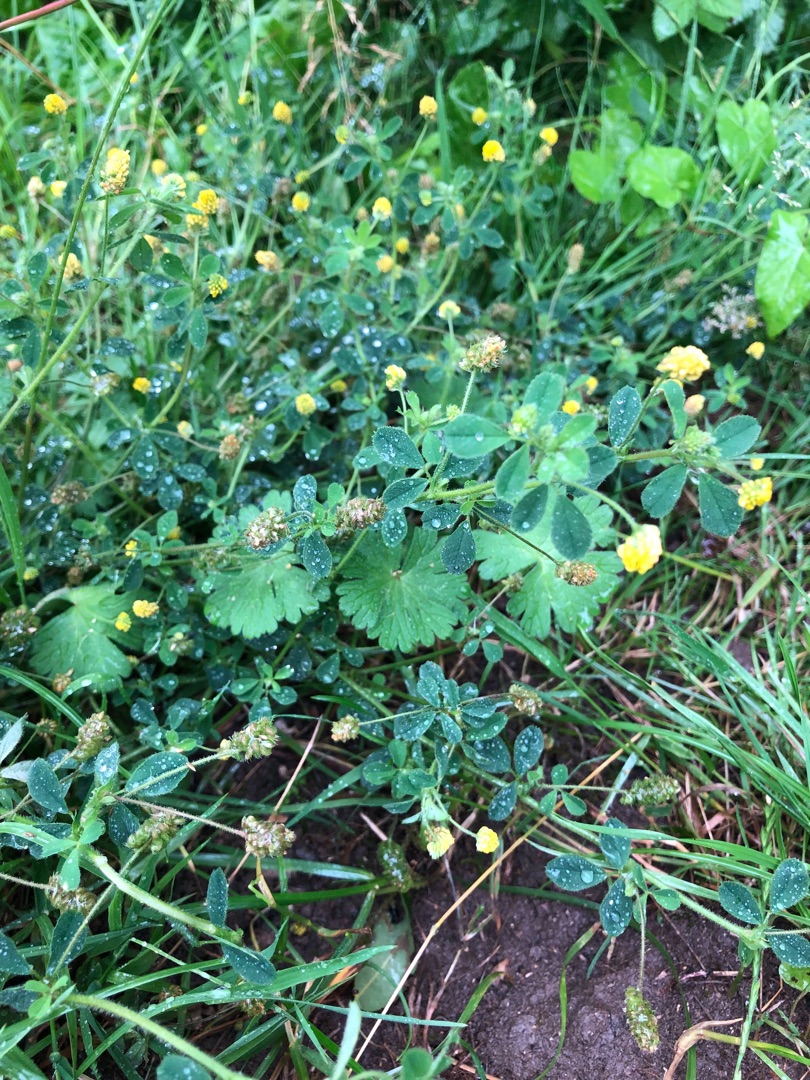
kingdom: Plantae
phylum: Tracheophyta
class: Magnoliopsida
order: Fabales
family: Fabaceae
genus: Medicago
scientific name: Medicago lupulina
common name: Humle-sneglebælg
